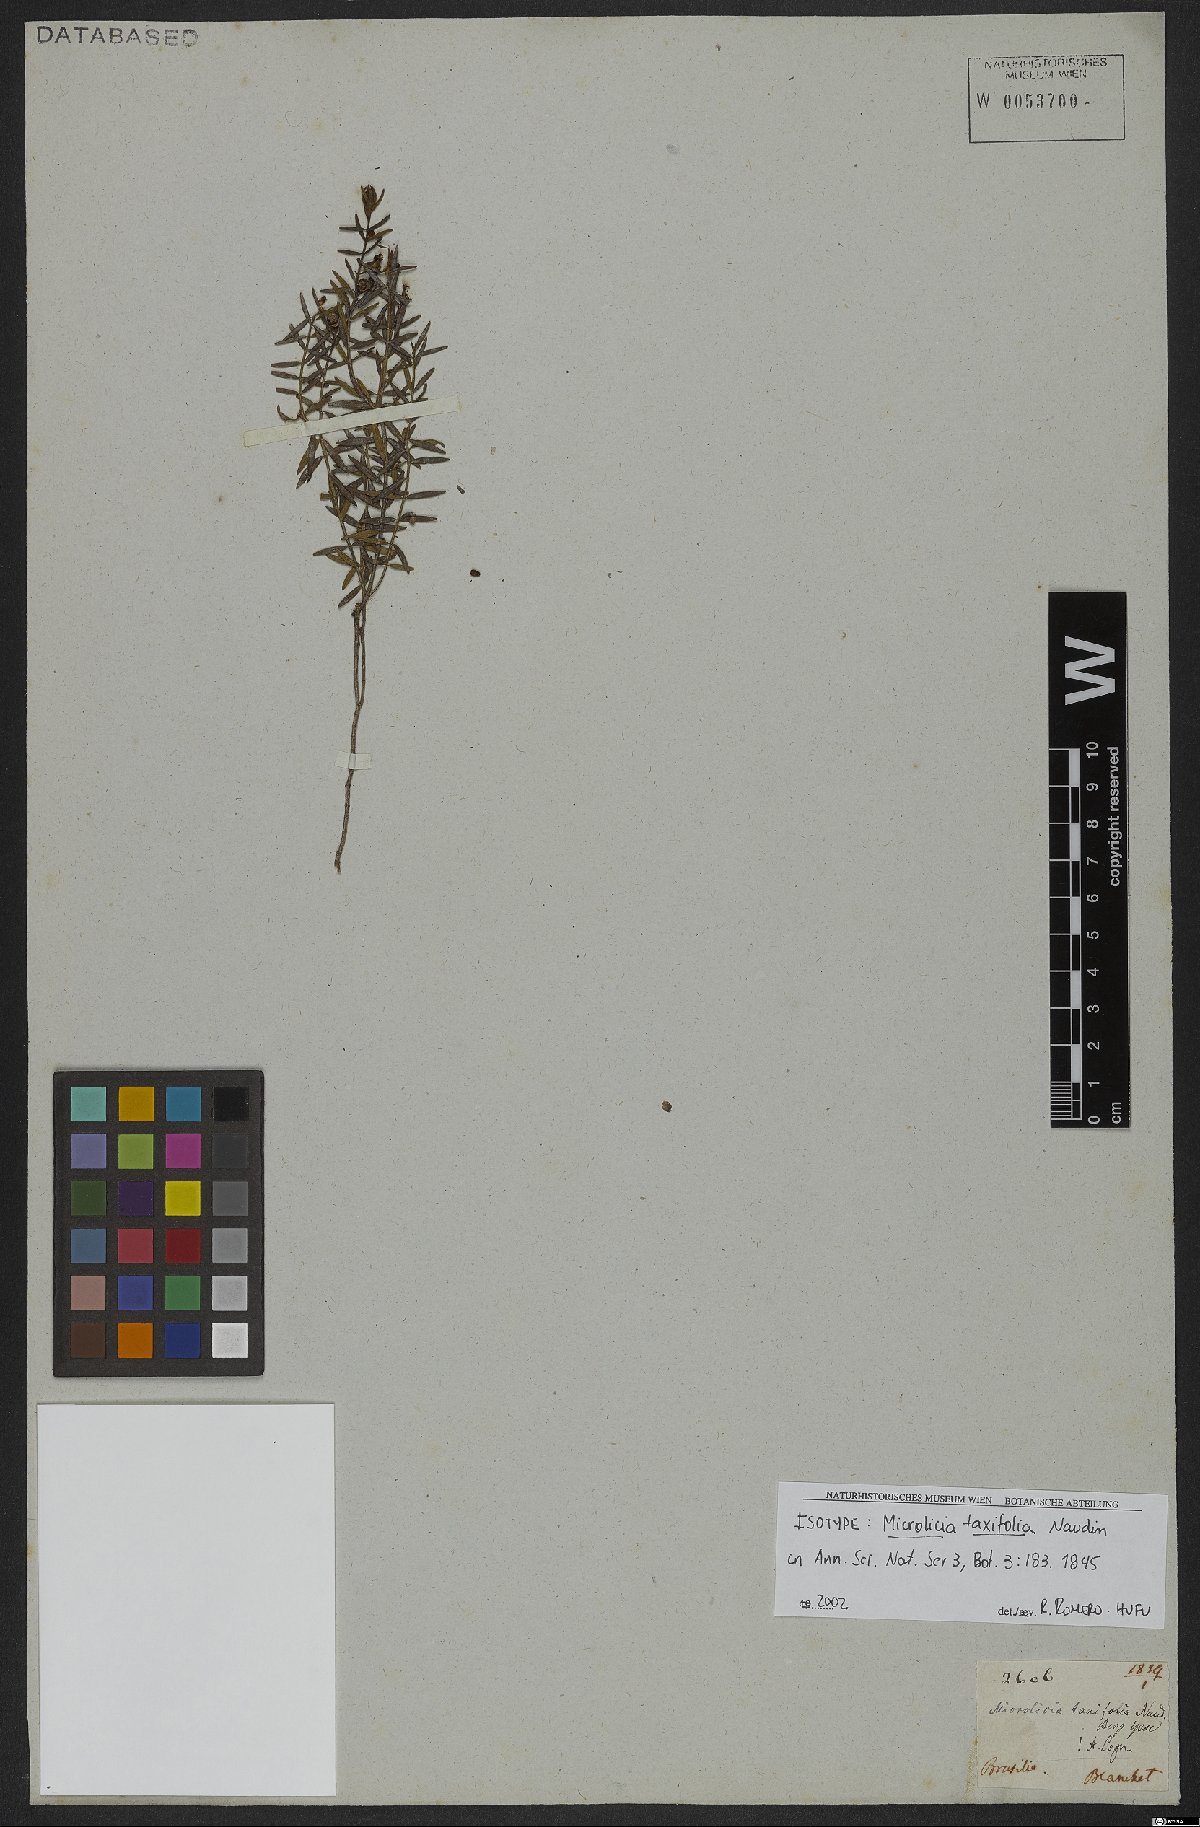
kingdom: Plantae
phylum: Tracheophyta
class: Magnoliopsida
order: Myrtales
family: Melastomataceae
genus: Microlicia
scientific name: Microlicia taxifolia
